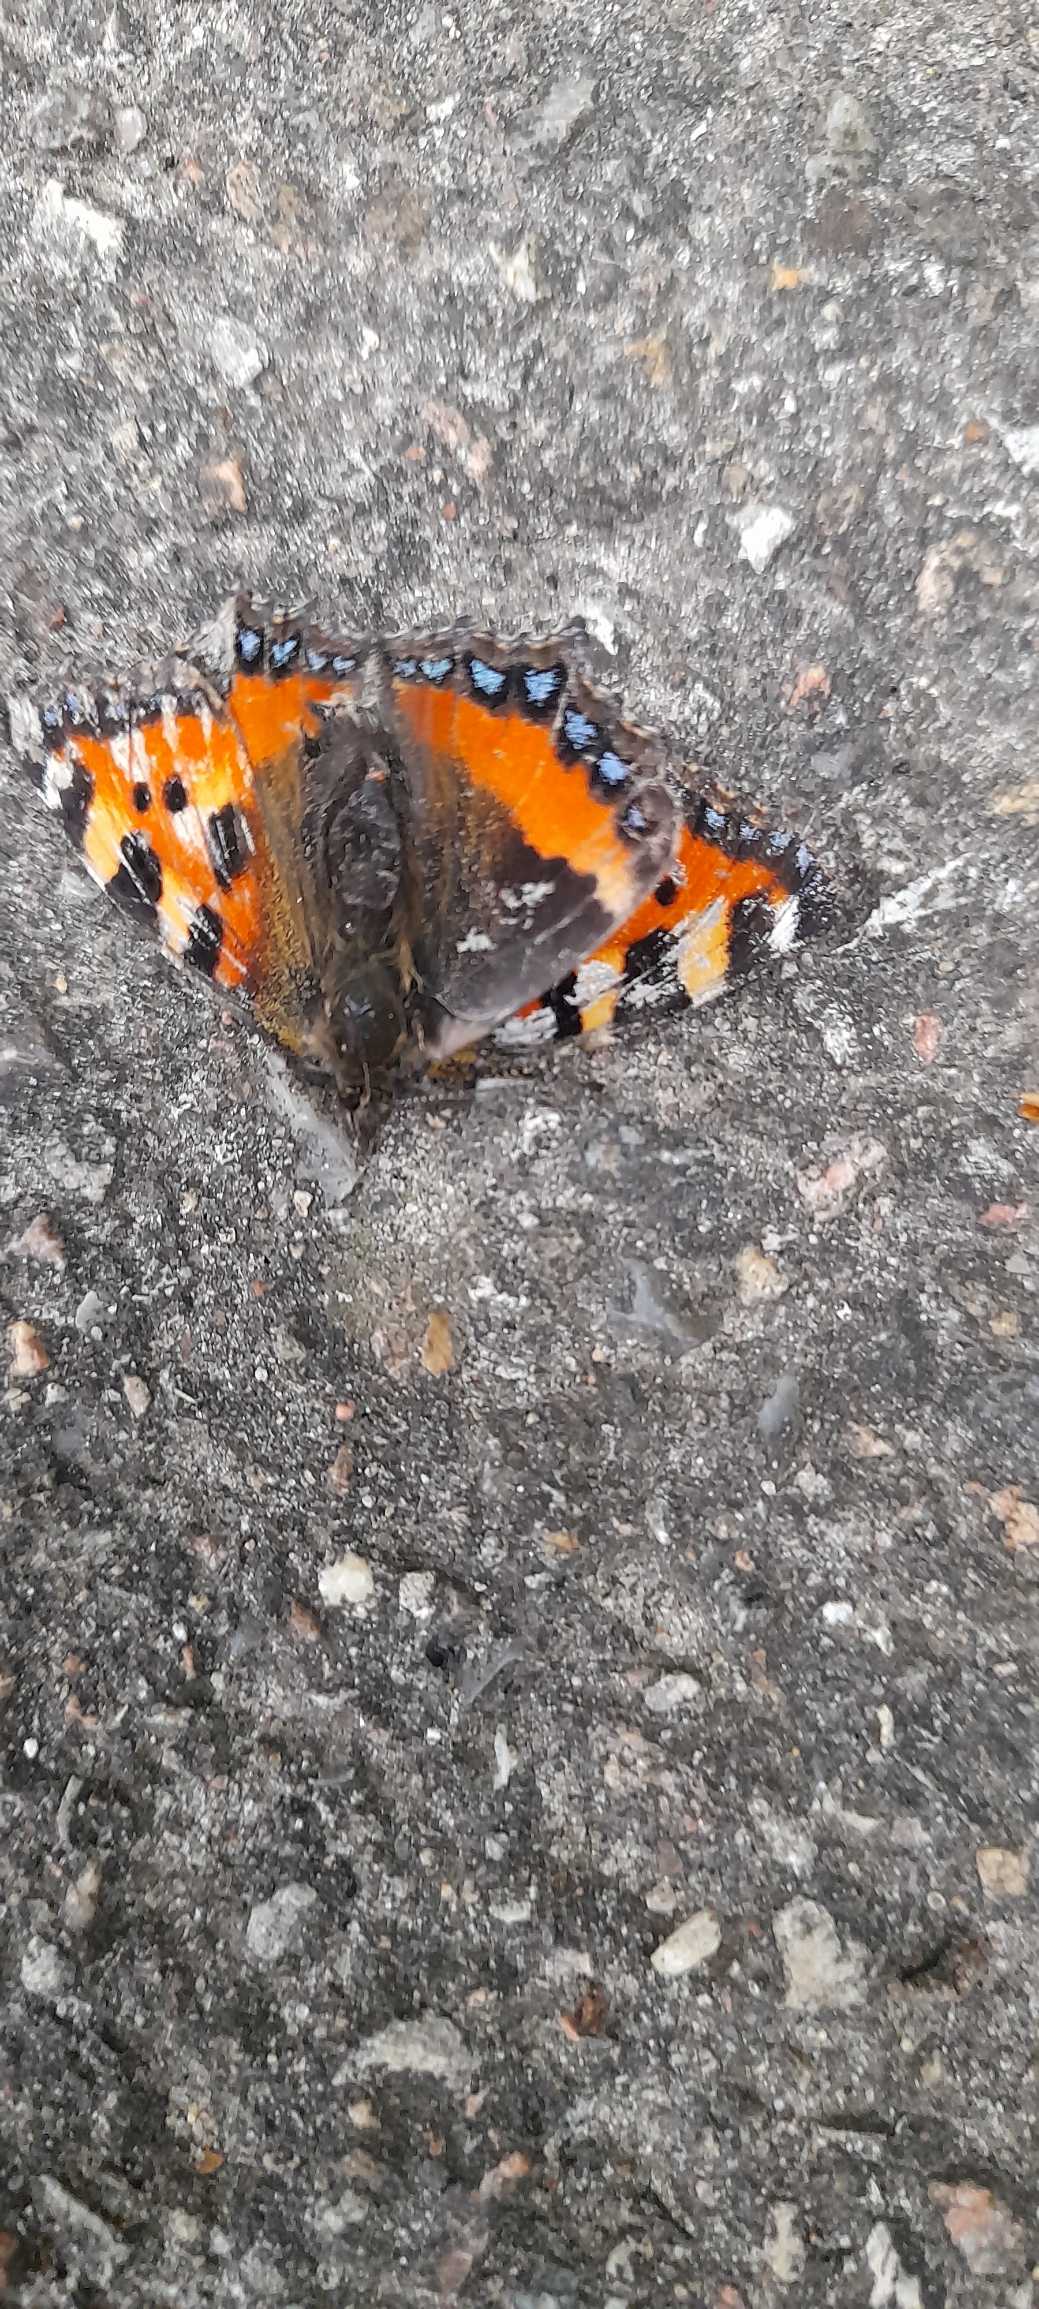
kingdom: Animalia
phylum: Arthropoda
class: Insecta
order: Lepidoptera
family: Nymphalidae
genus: Aglais
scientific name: Aglais urticae
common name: Nældens takvinge
